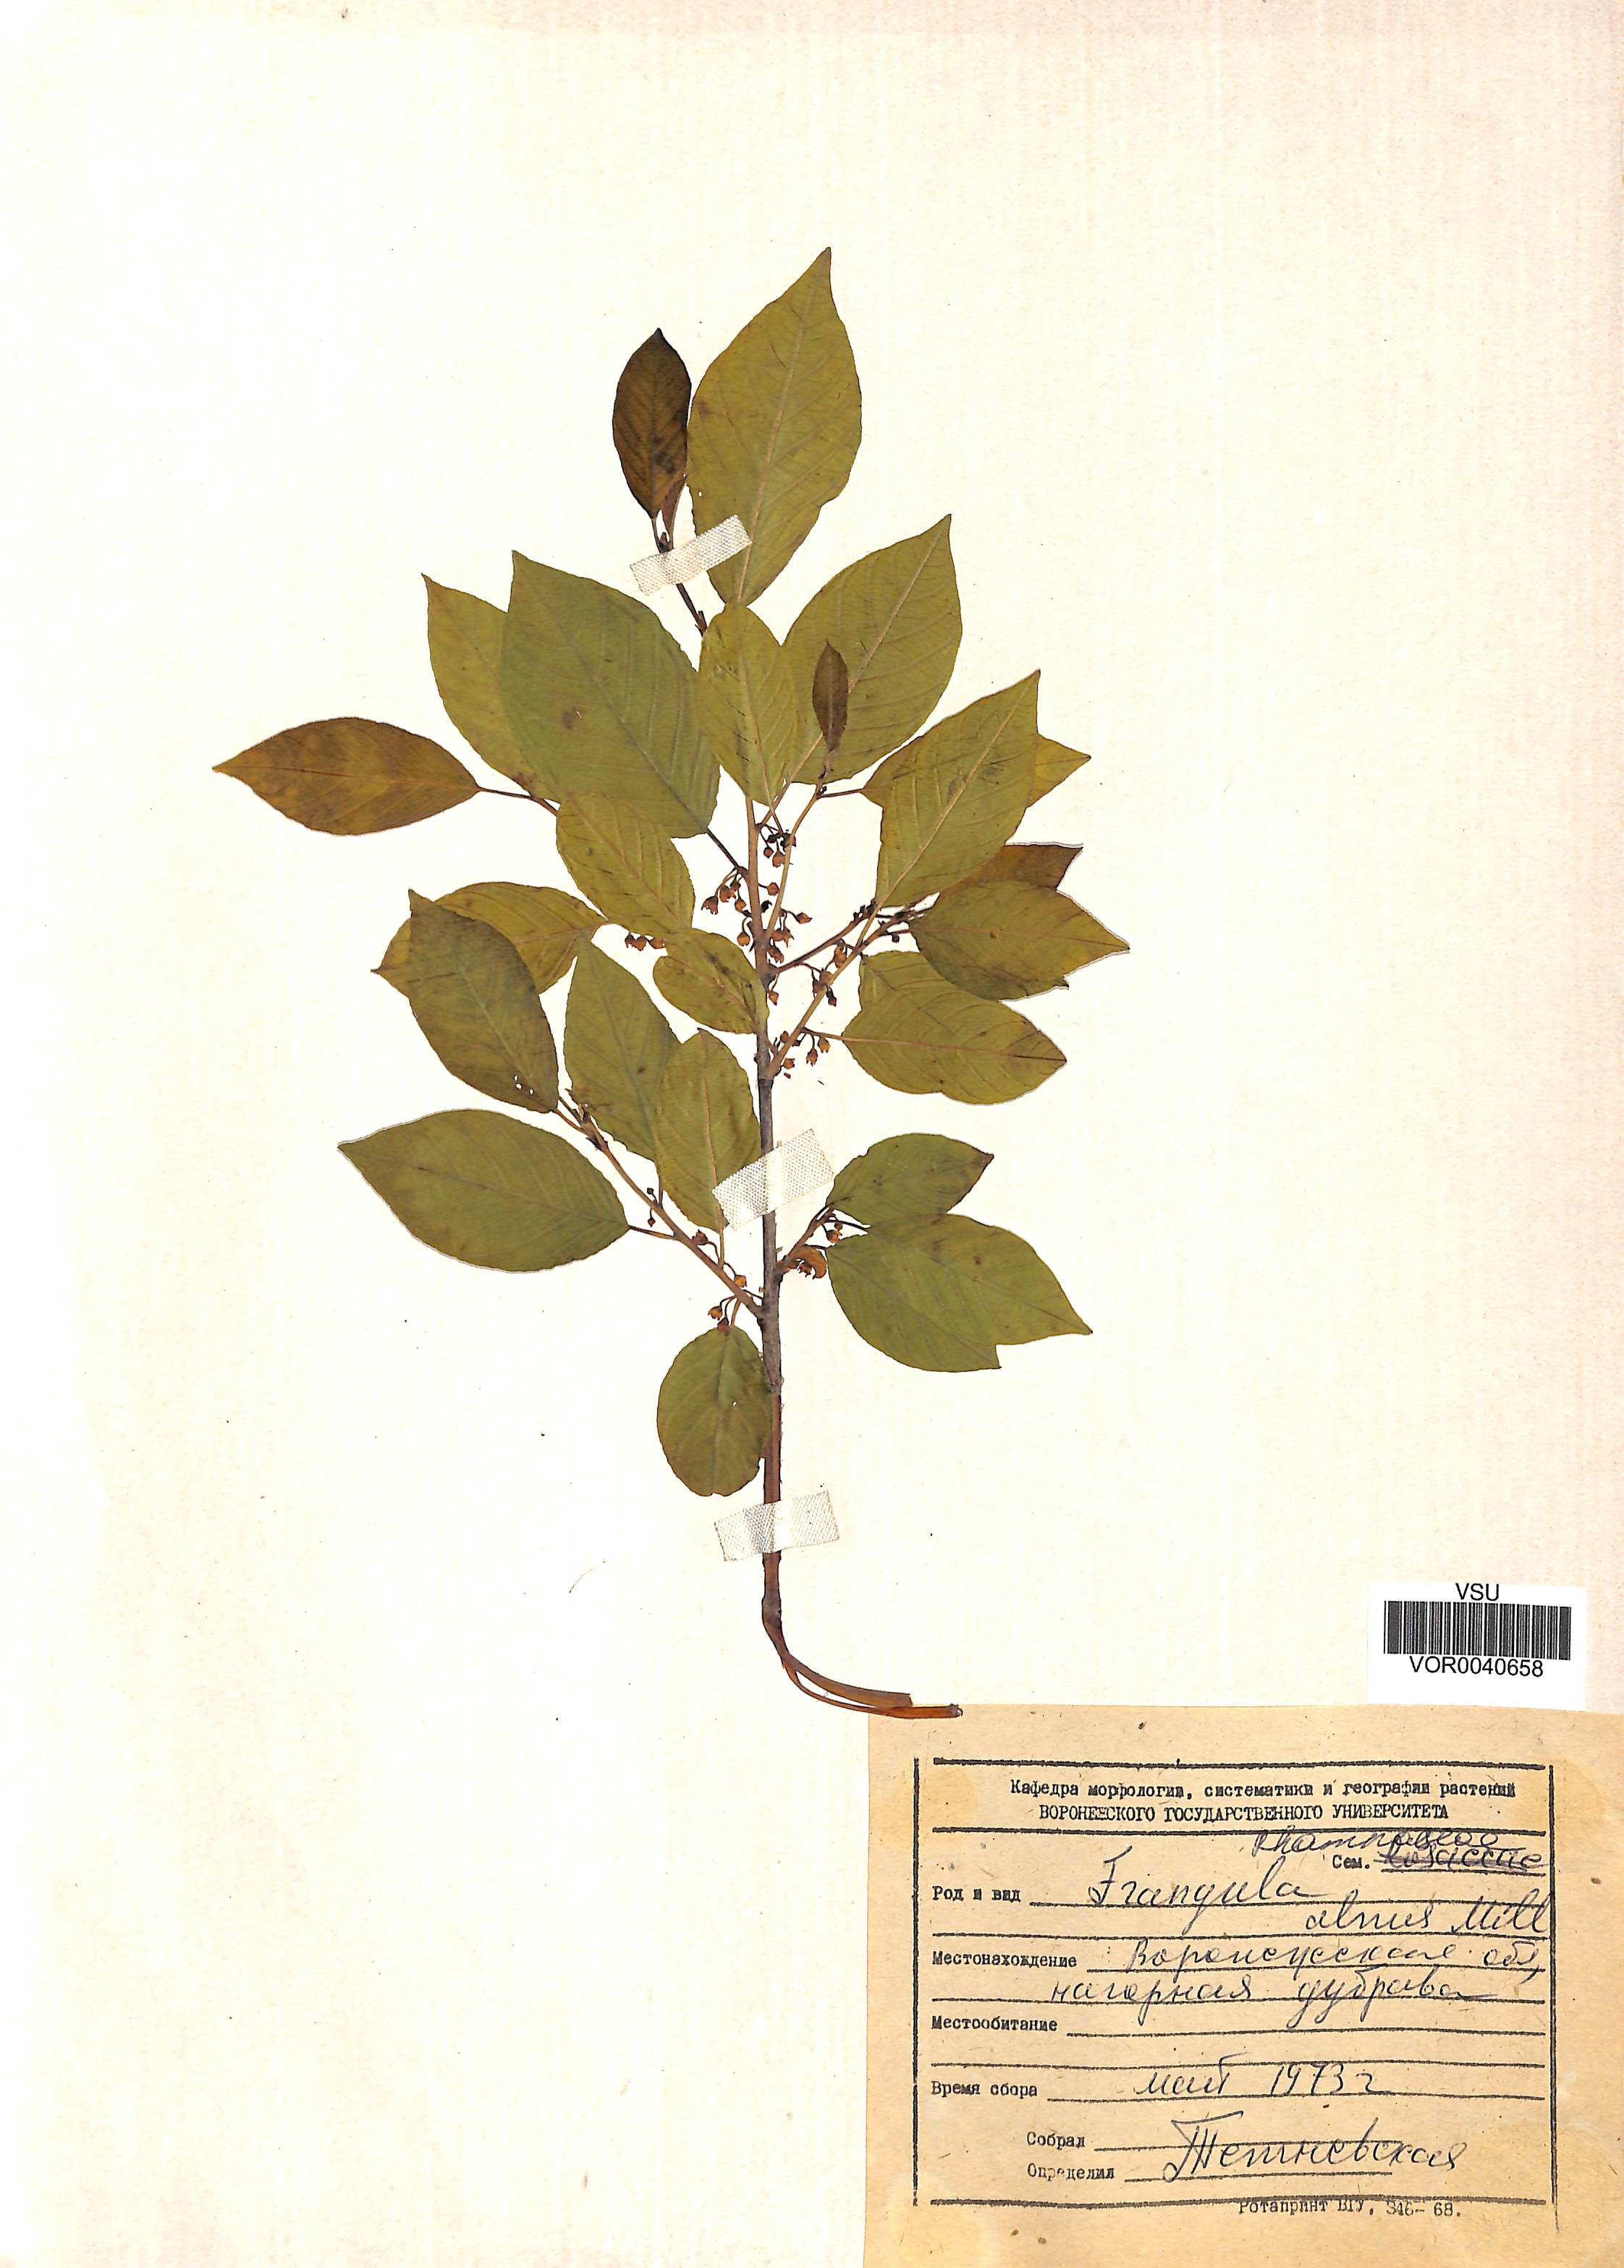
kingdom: Plantae
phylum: Tracheophyta
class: Magnoliopsida
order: Rosales
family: Rhamnaceae
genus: Frangula
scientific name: Frangula alnus
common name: Alder buckthorn
